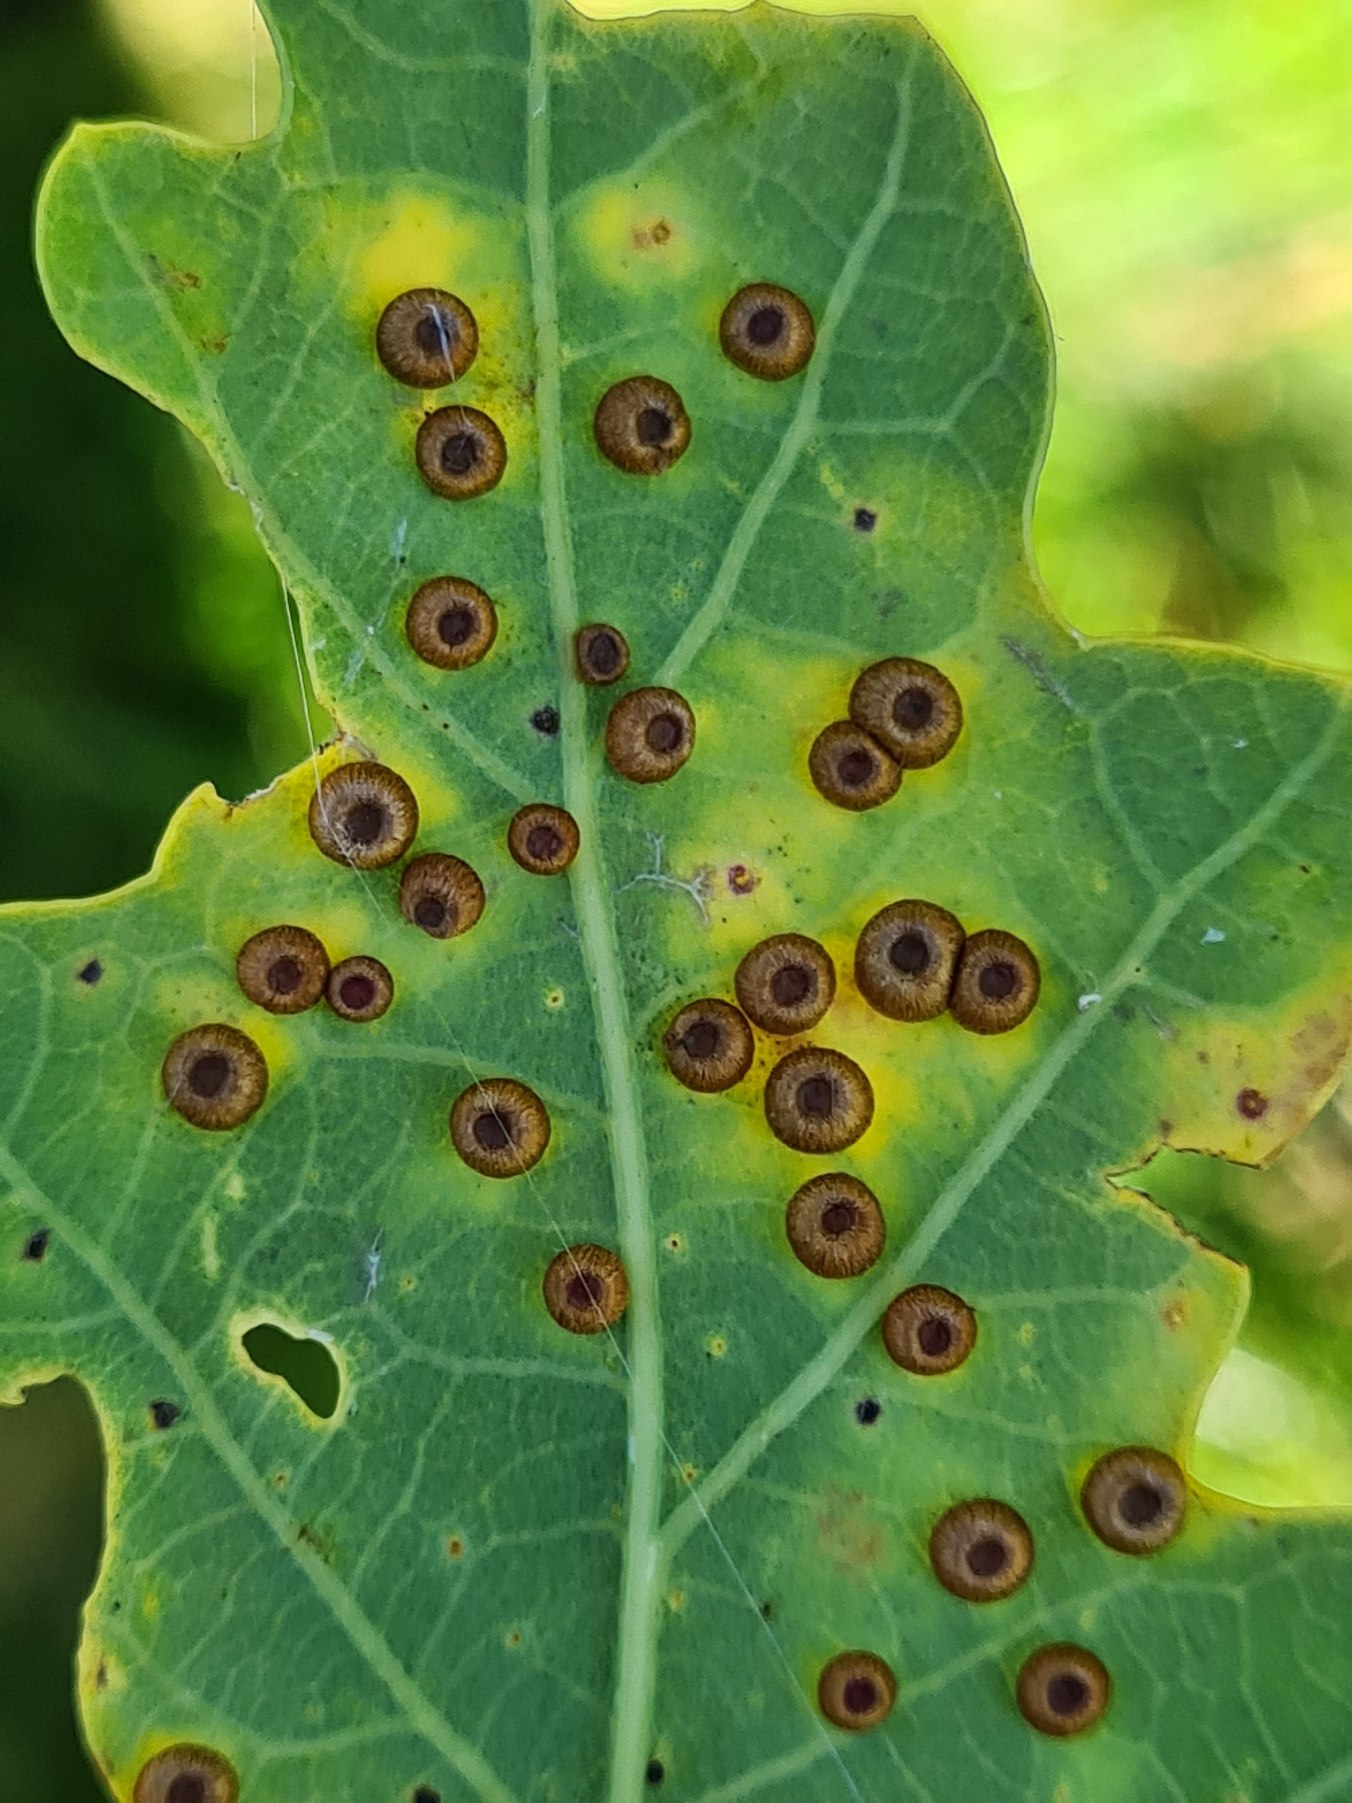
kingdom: Animalia
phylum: Arthropoda
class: Insecta
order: Hymenoptera
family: Cynipidae
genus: Neuroterus
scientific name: Neuroterus numismalis
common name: Knapgalhveps
